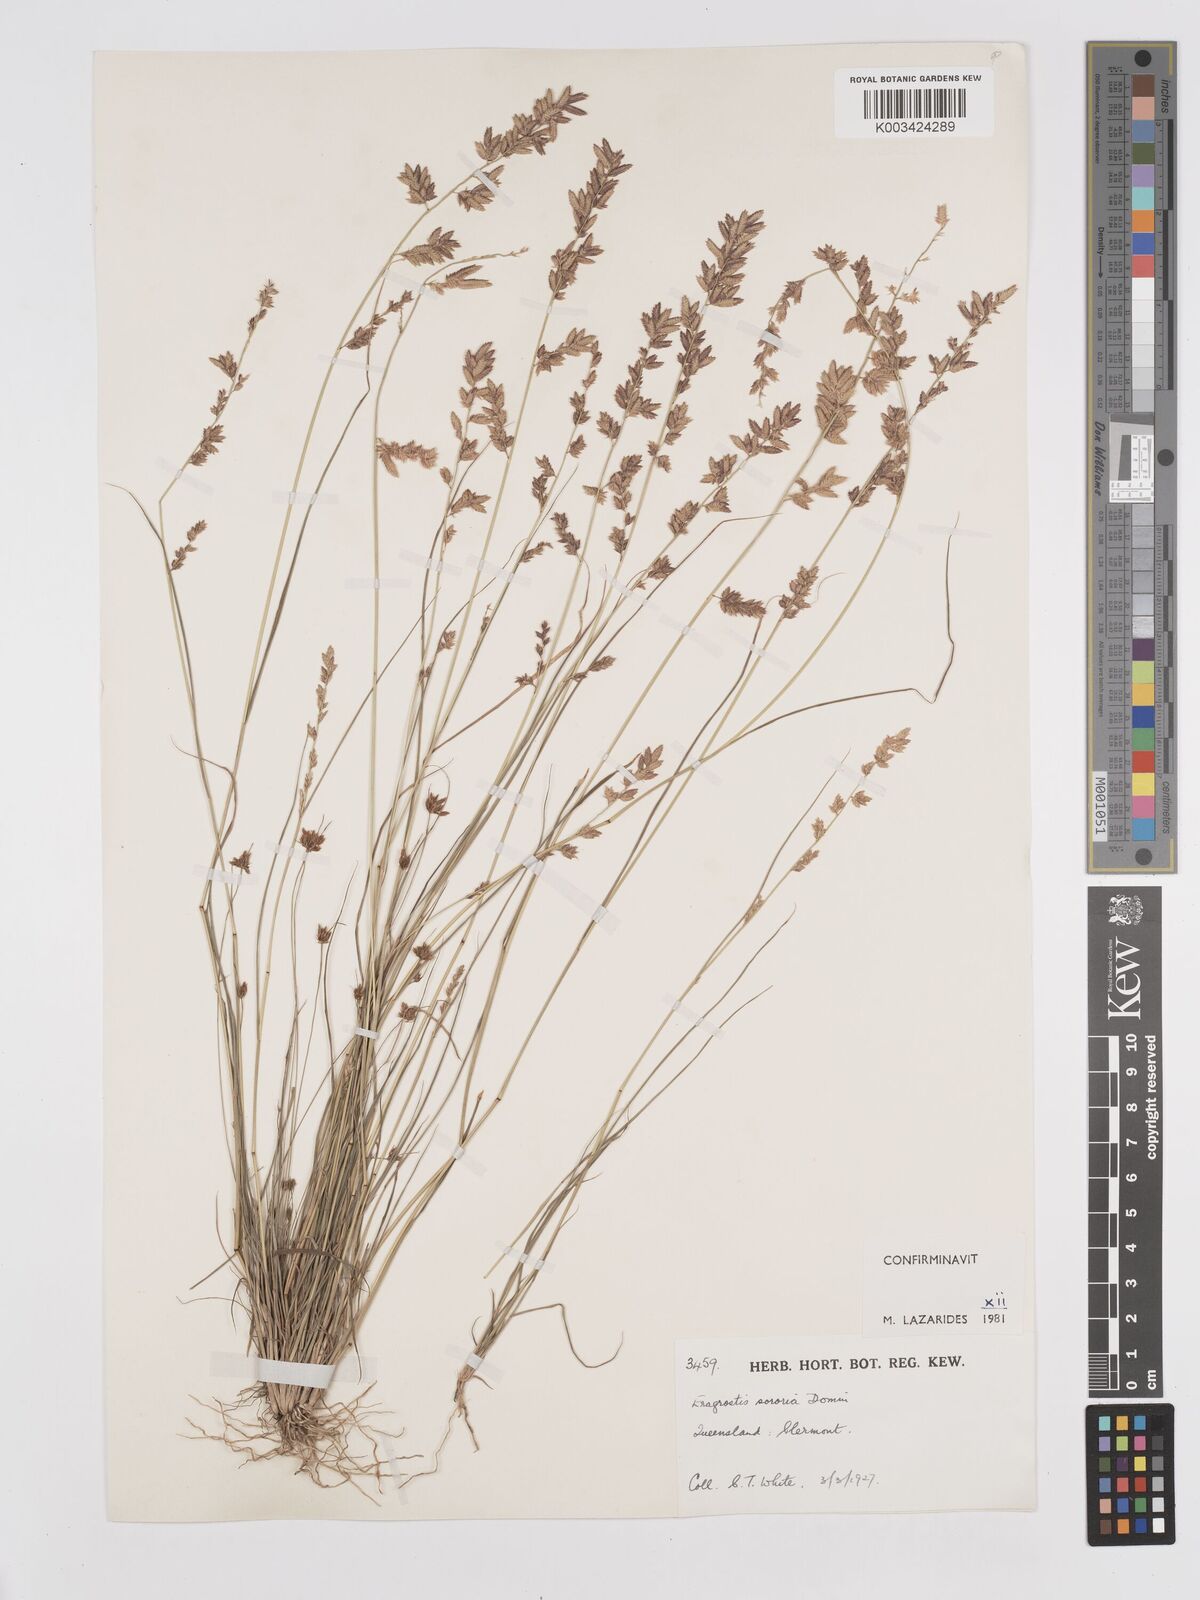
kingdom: Plantae
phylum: Tracheophyta
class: Liliopsida
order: Poales
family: Poaceae
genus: Eragrostis
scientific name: Eragrostis sororia
